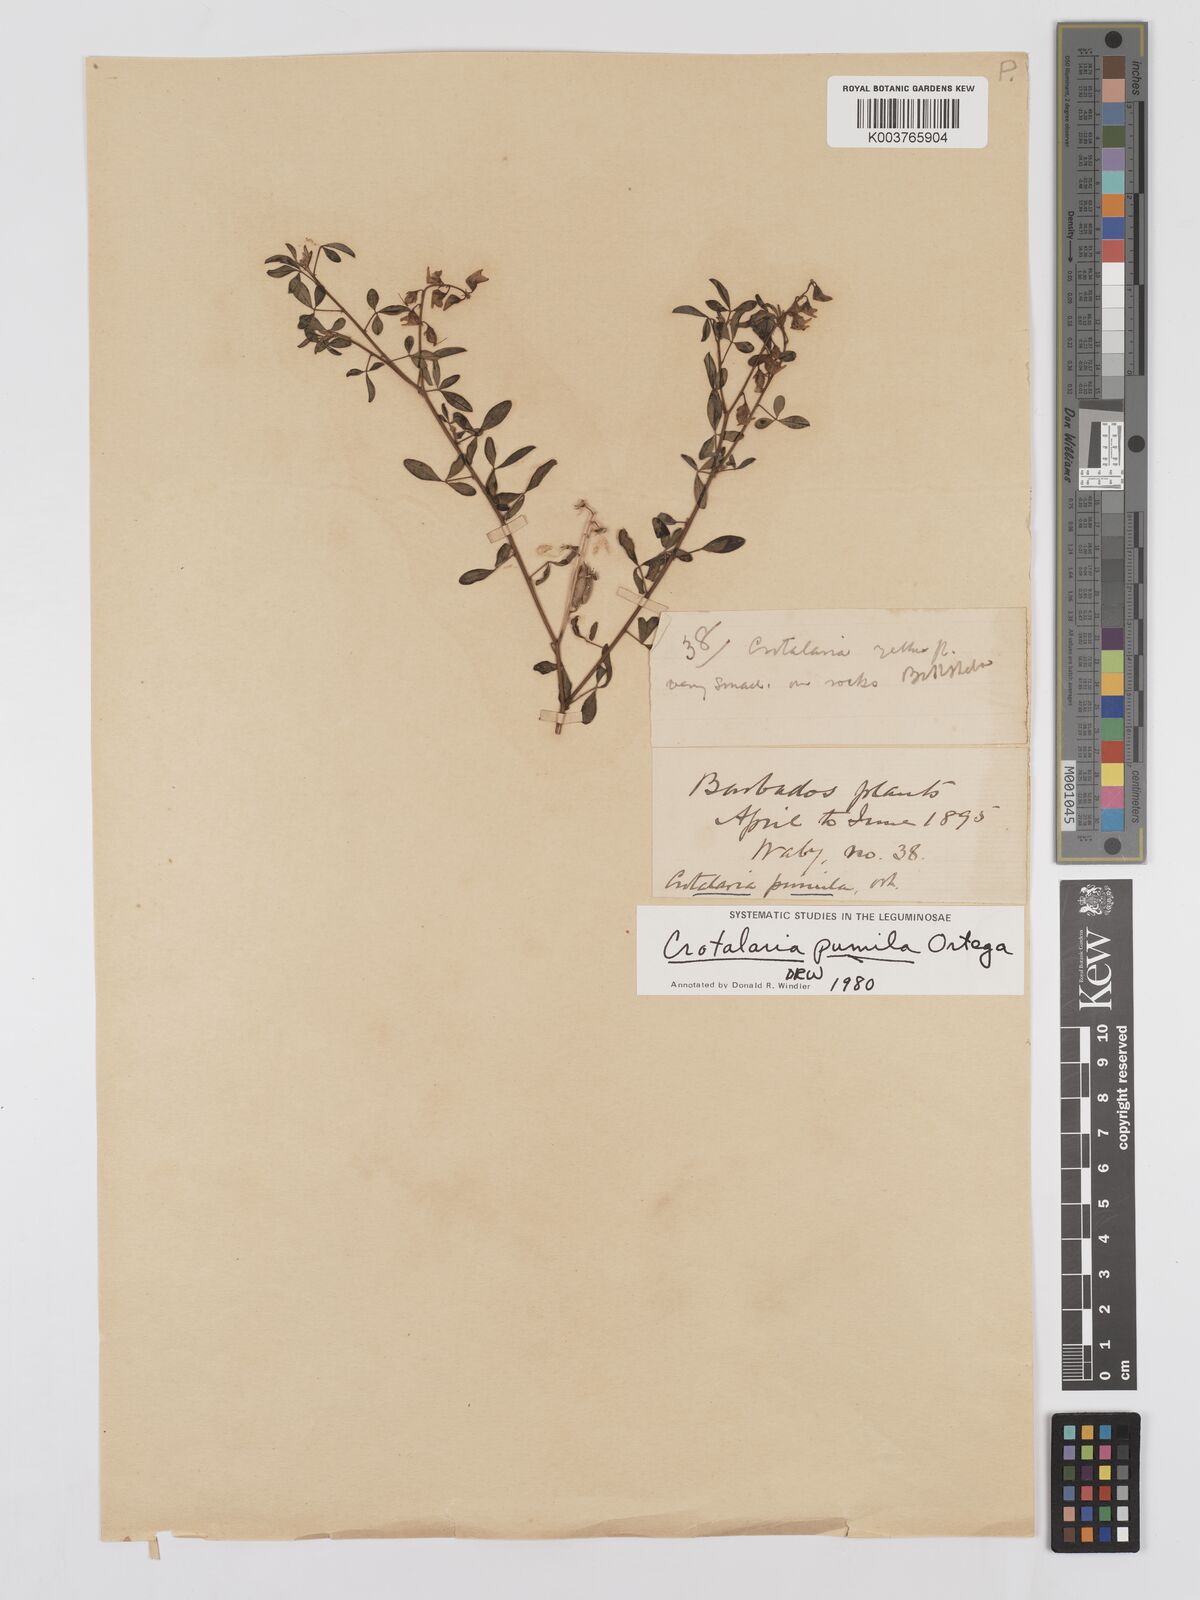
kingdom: Plantae
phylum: Tracheophyta
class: Magnoliopsida
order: Fabales
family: Fabaceae
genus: Crotalaria
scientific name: Crotalaria pumila
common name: Low rattlebox
